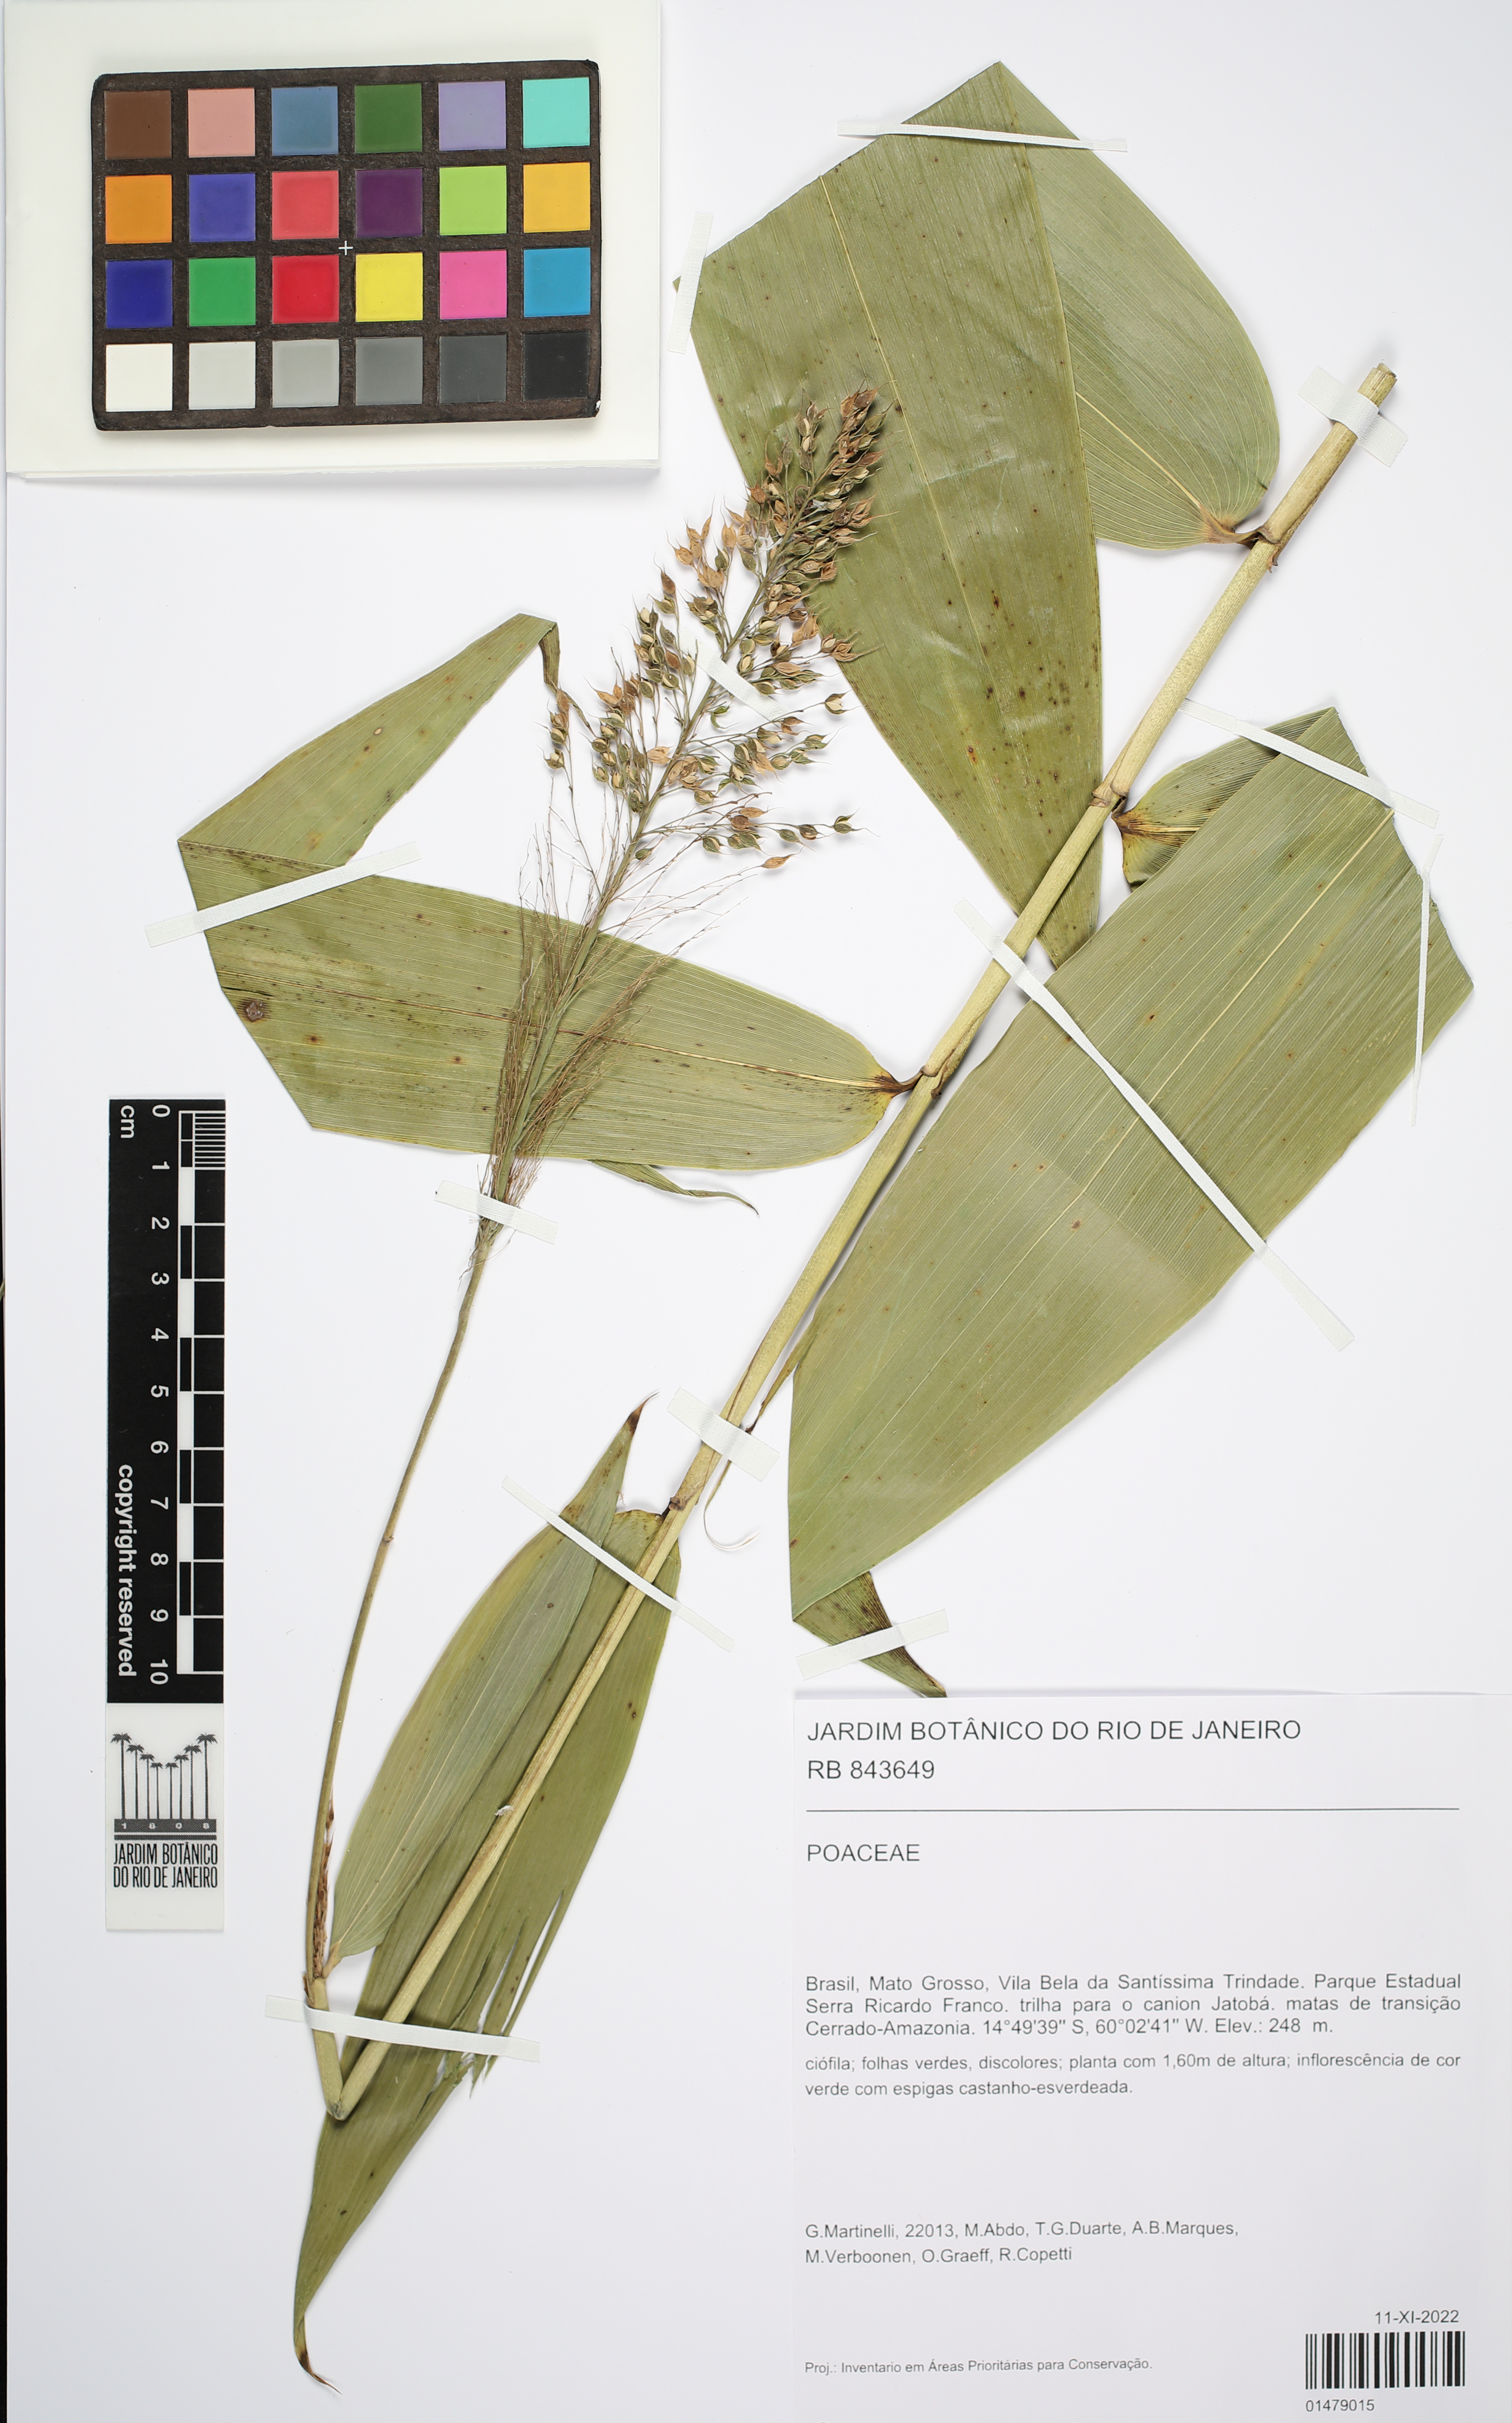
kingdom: Plantae
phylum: Tracheophyta
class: Liliopsida
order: Poales
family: Poaceae
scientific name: Poaceae
